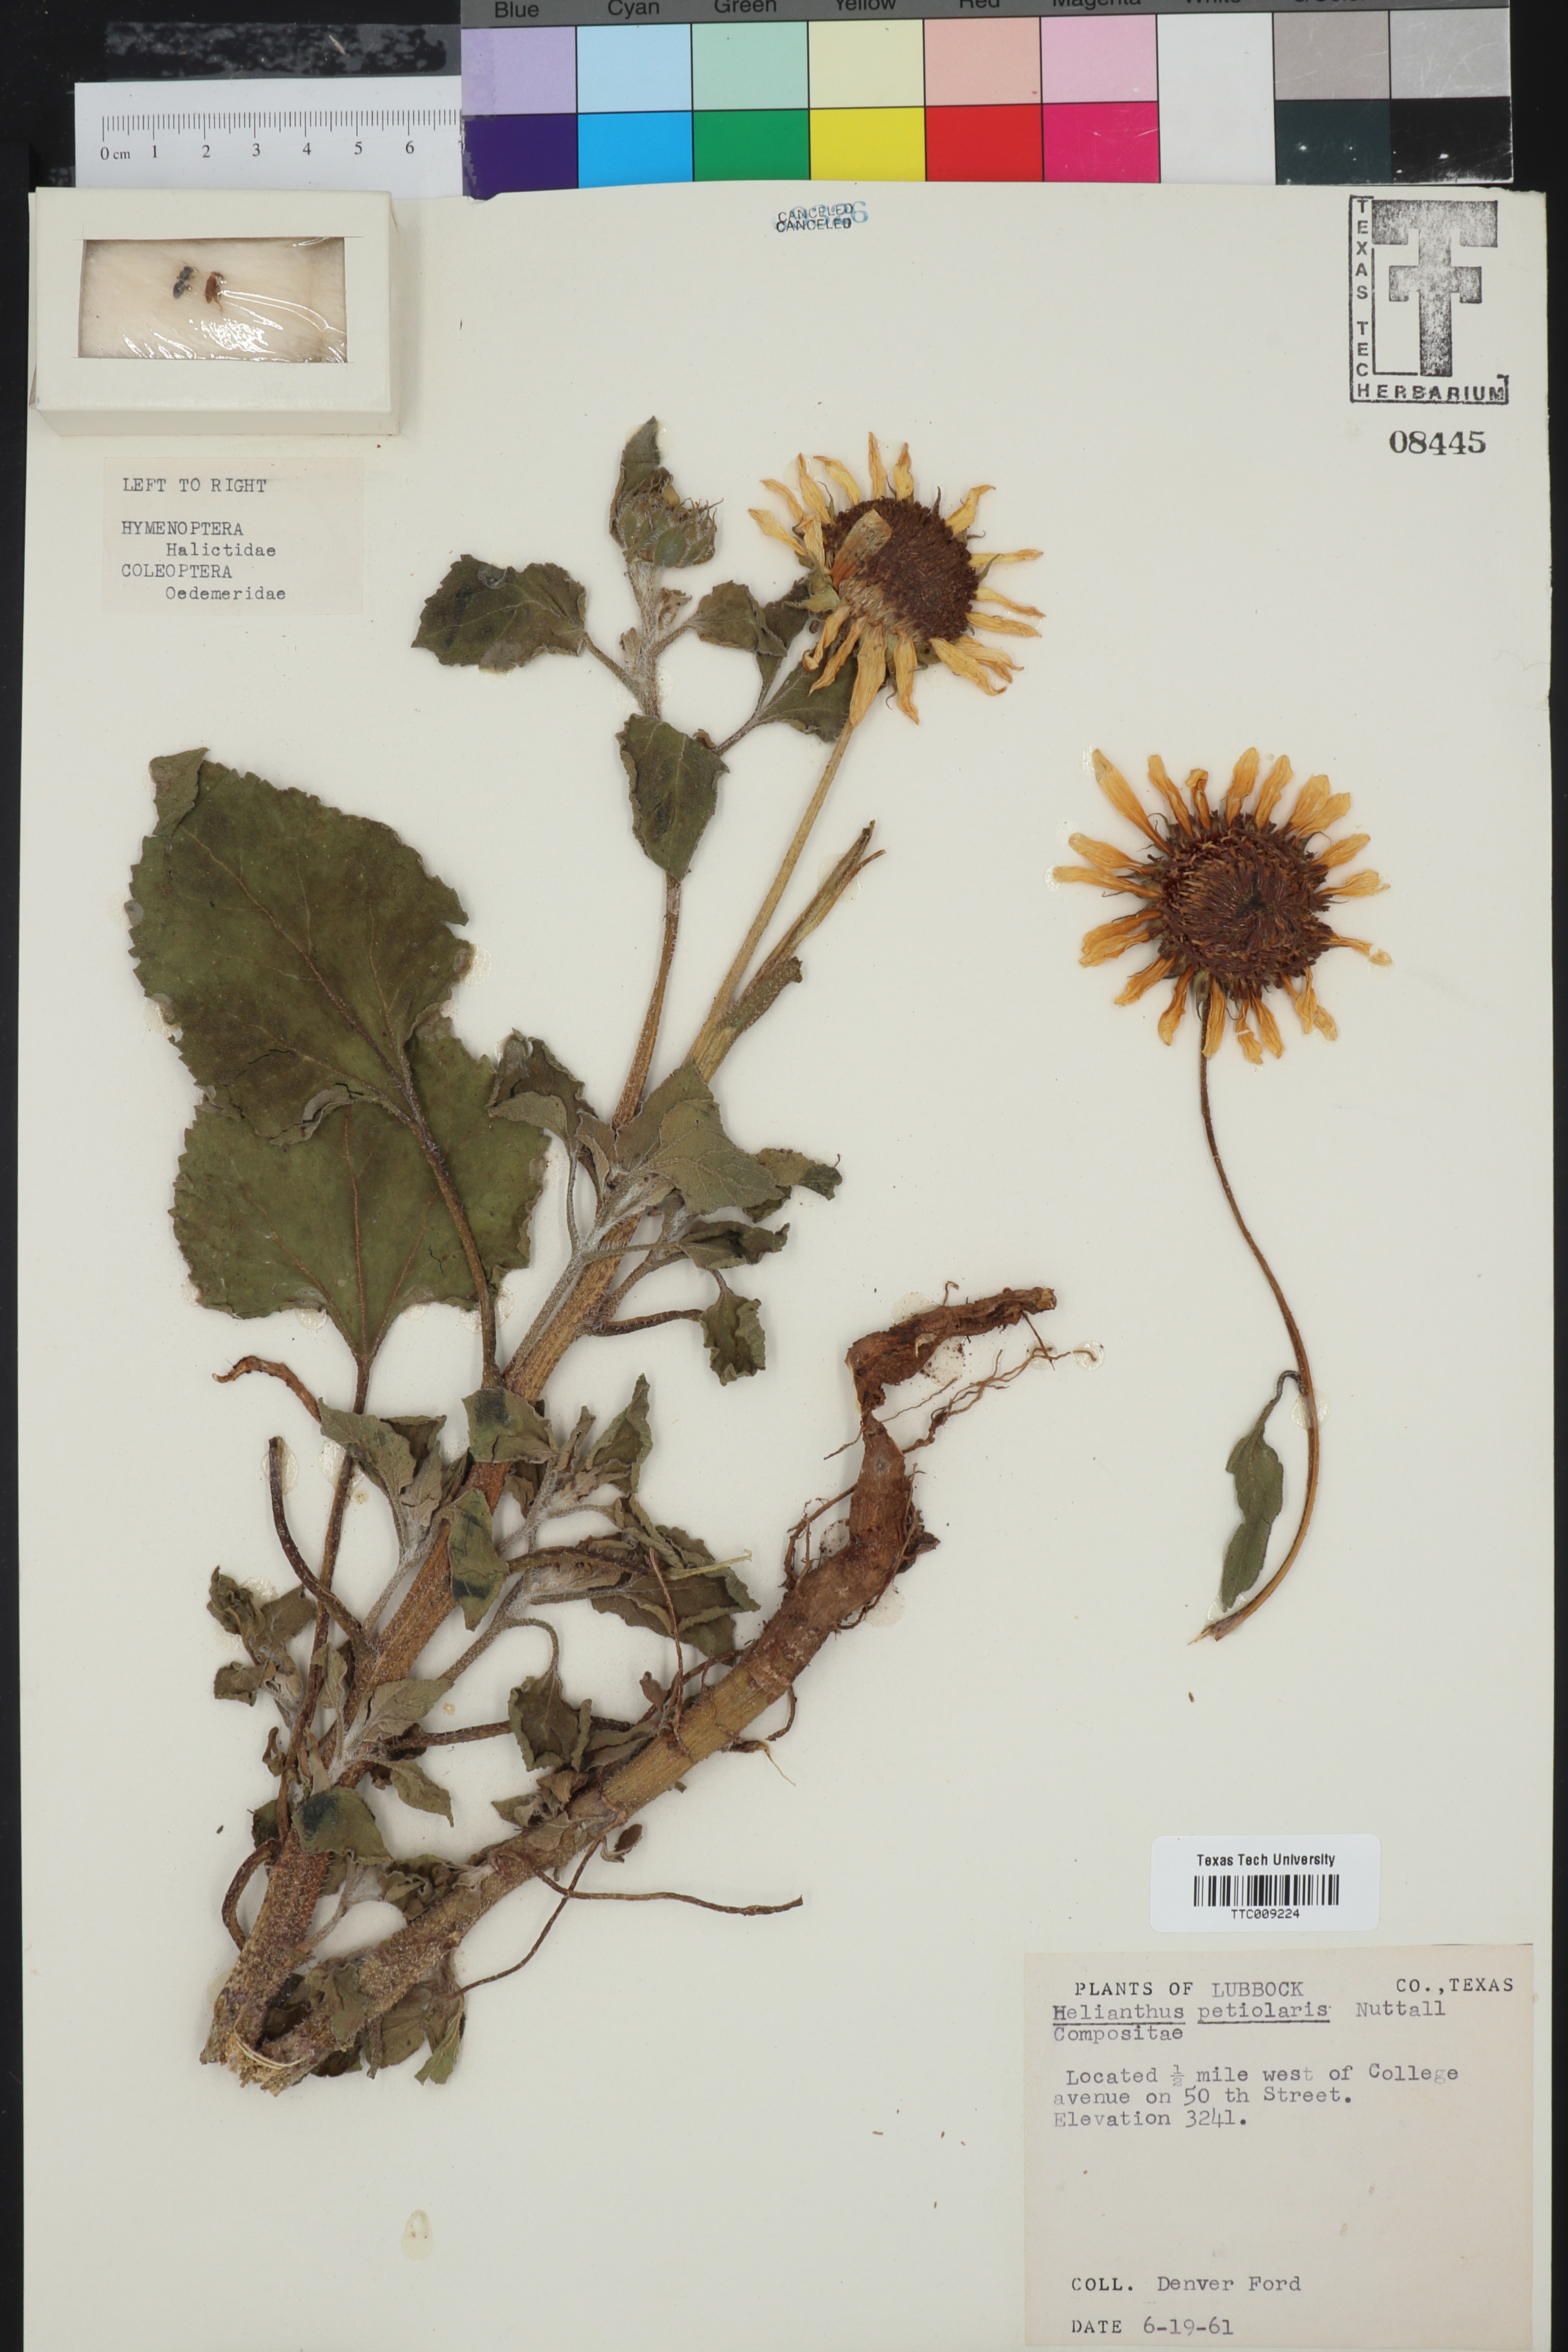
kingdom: Plantae
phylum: Tracheophyta
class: Magnoliopsida
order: Asterales
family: Asteraceae
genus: Helianthus
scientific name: Helianthus petiolaris
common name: Lesser sunflower
